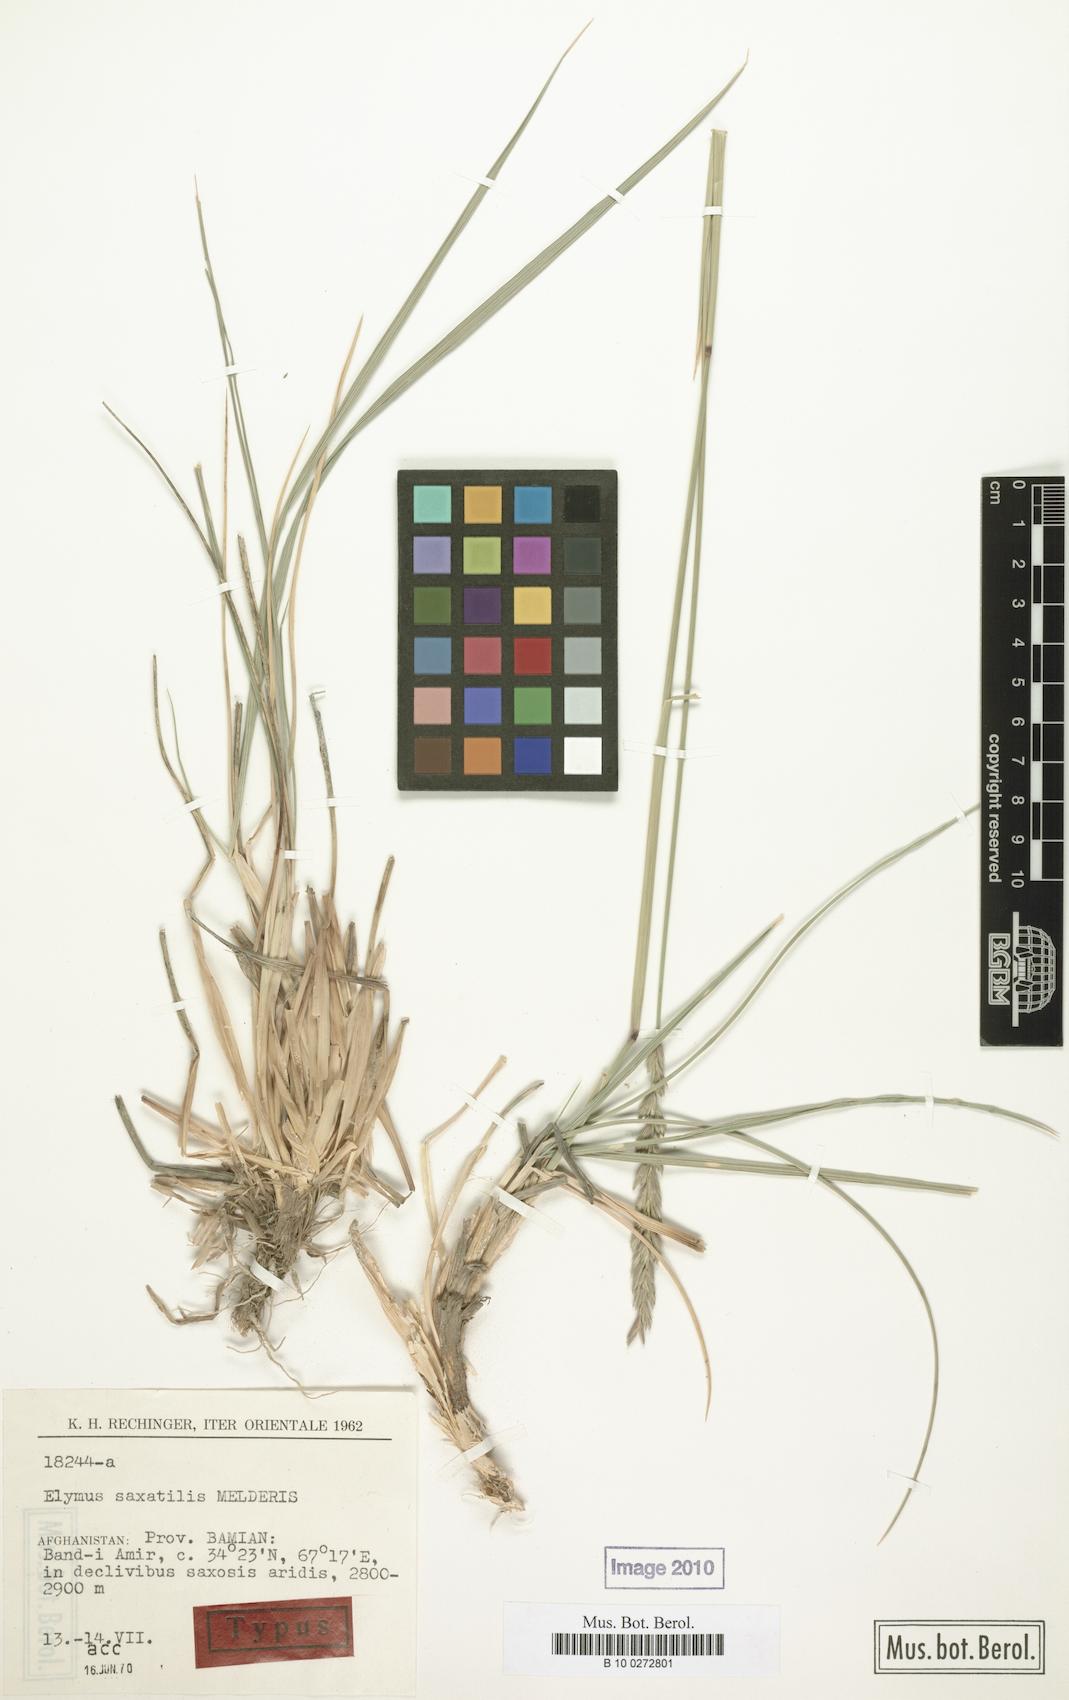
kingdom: Plantae
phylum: Tracheophyta
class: Liliopsida
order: Poales
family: Poaceae
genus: Elymus
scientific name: Elymus
